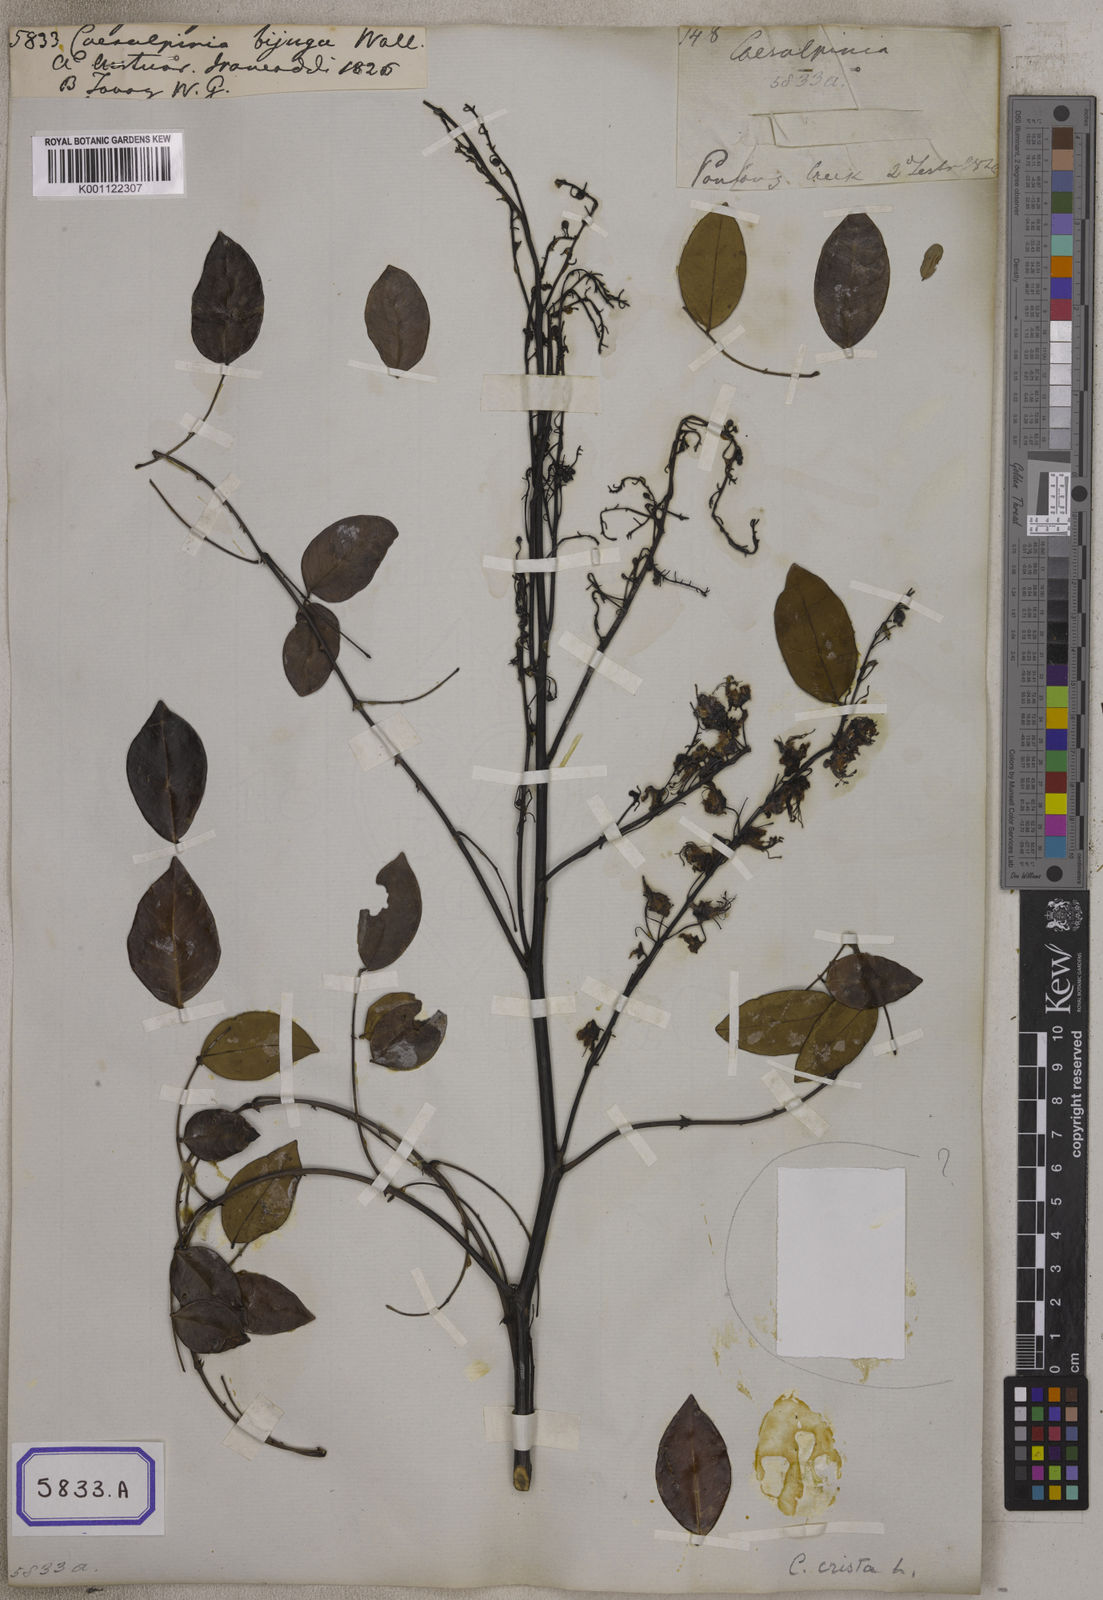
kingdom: Plantae
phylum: Tracheophyta
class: Magnoliopsida
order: Fabales
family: Fabaceae
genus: Caesalpinia
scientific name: Caesalpinia
